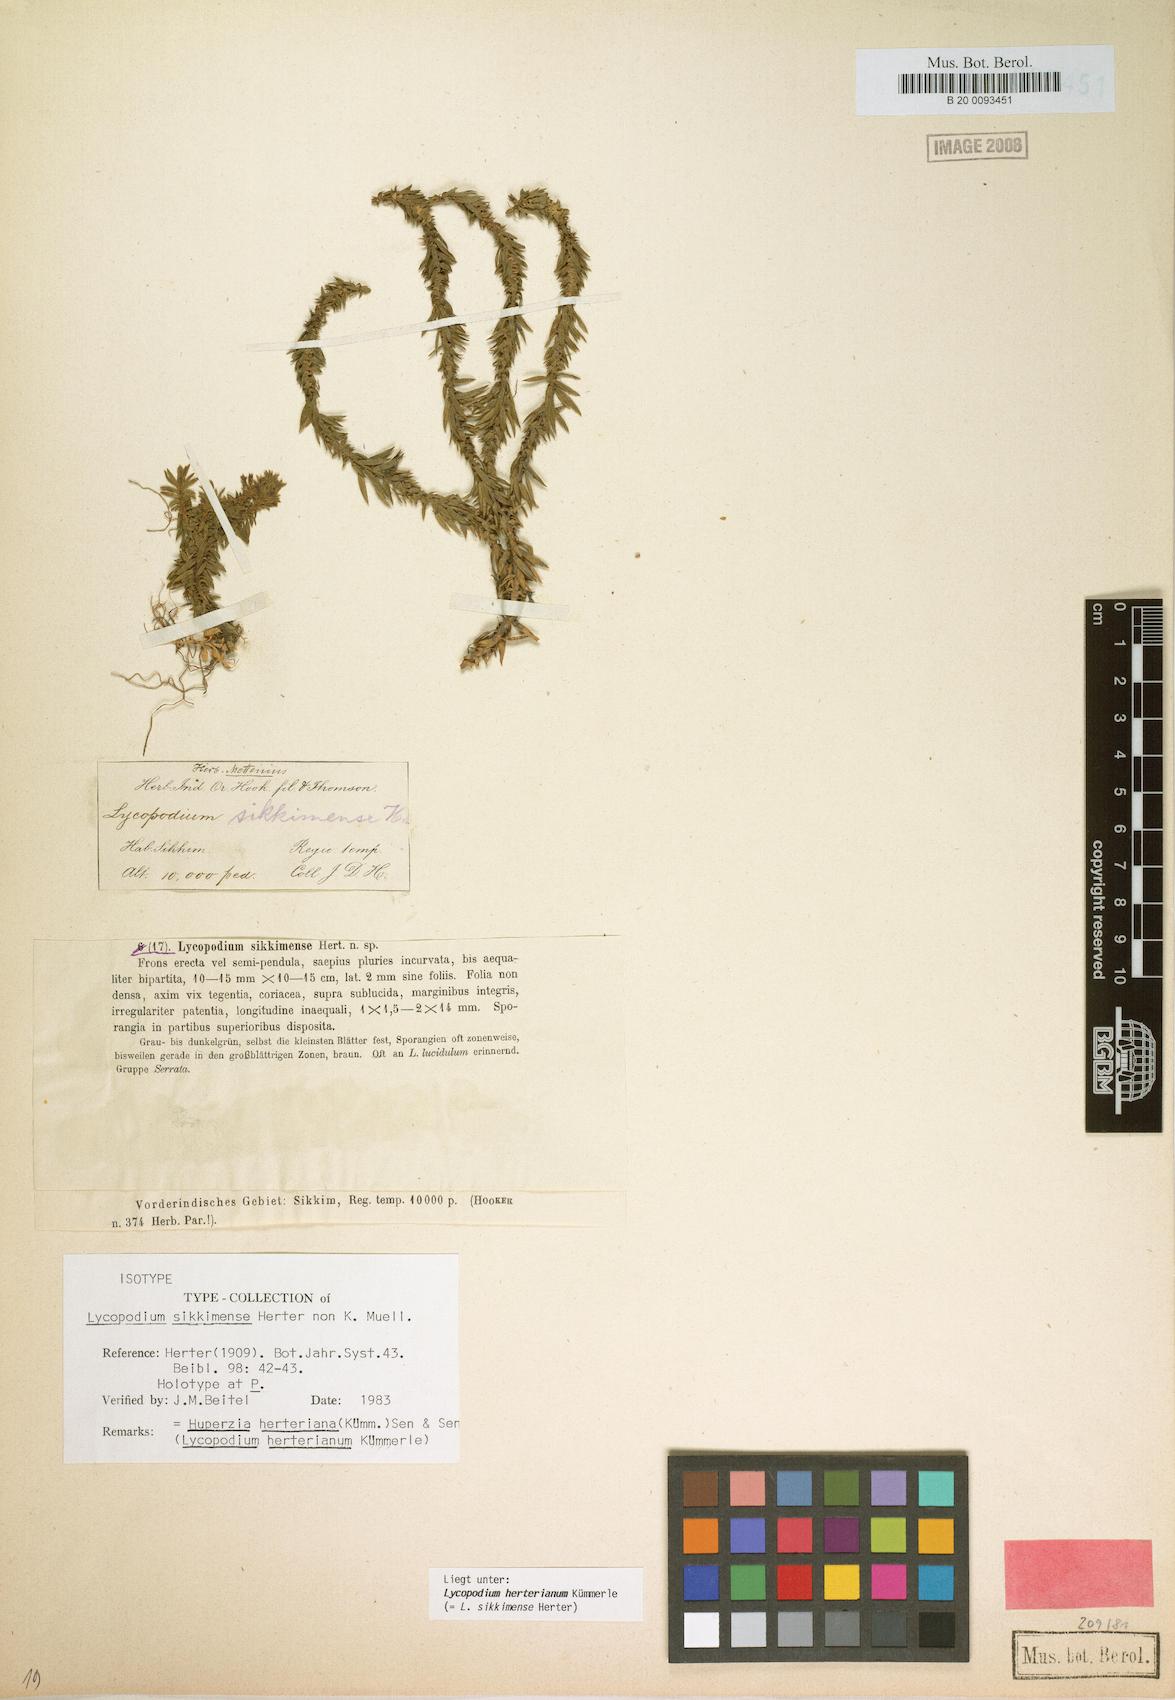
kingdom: Plantae
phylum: Tracheophyta
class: Lycopodiopsida
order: Lycopodiales
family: Lycopodiaceae
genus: Huperzia
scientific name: Huperzia herteriana
